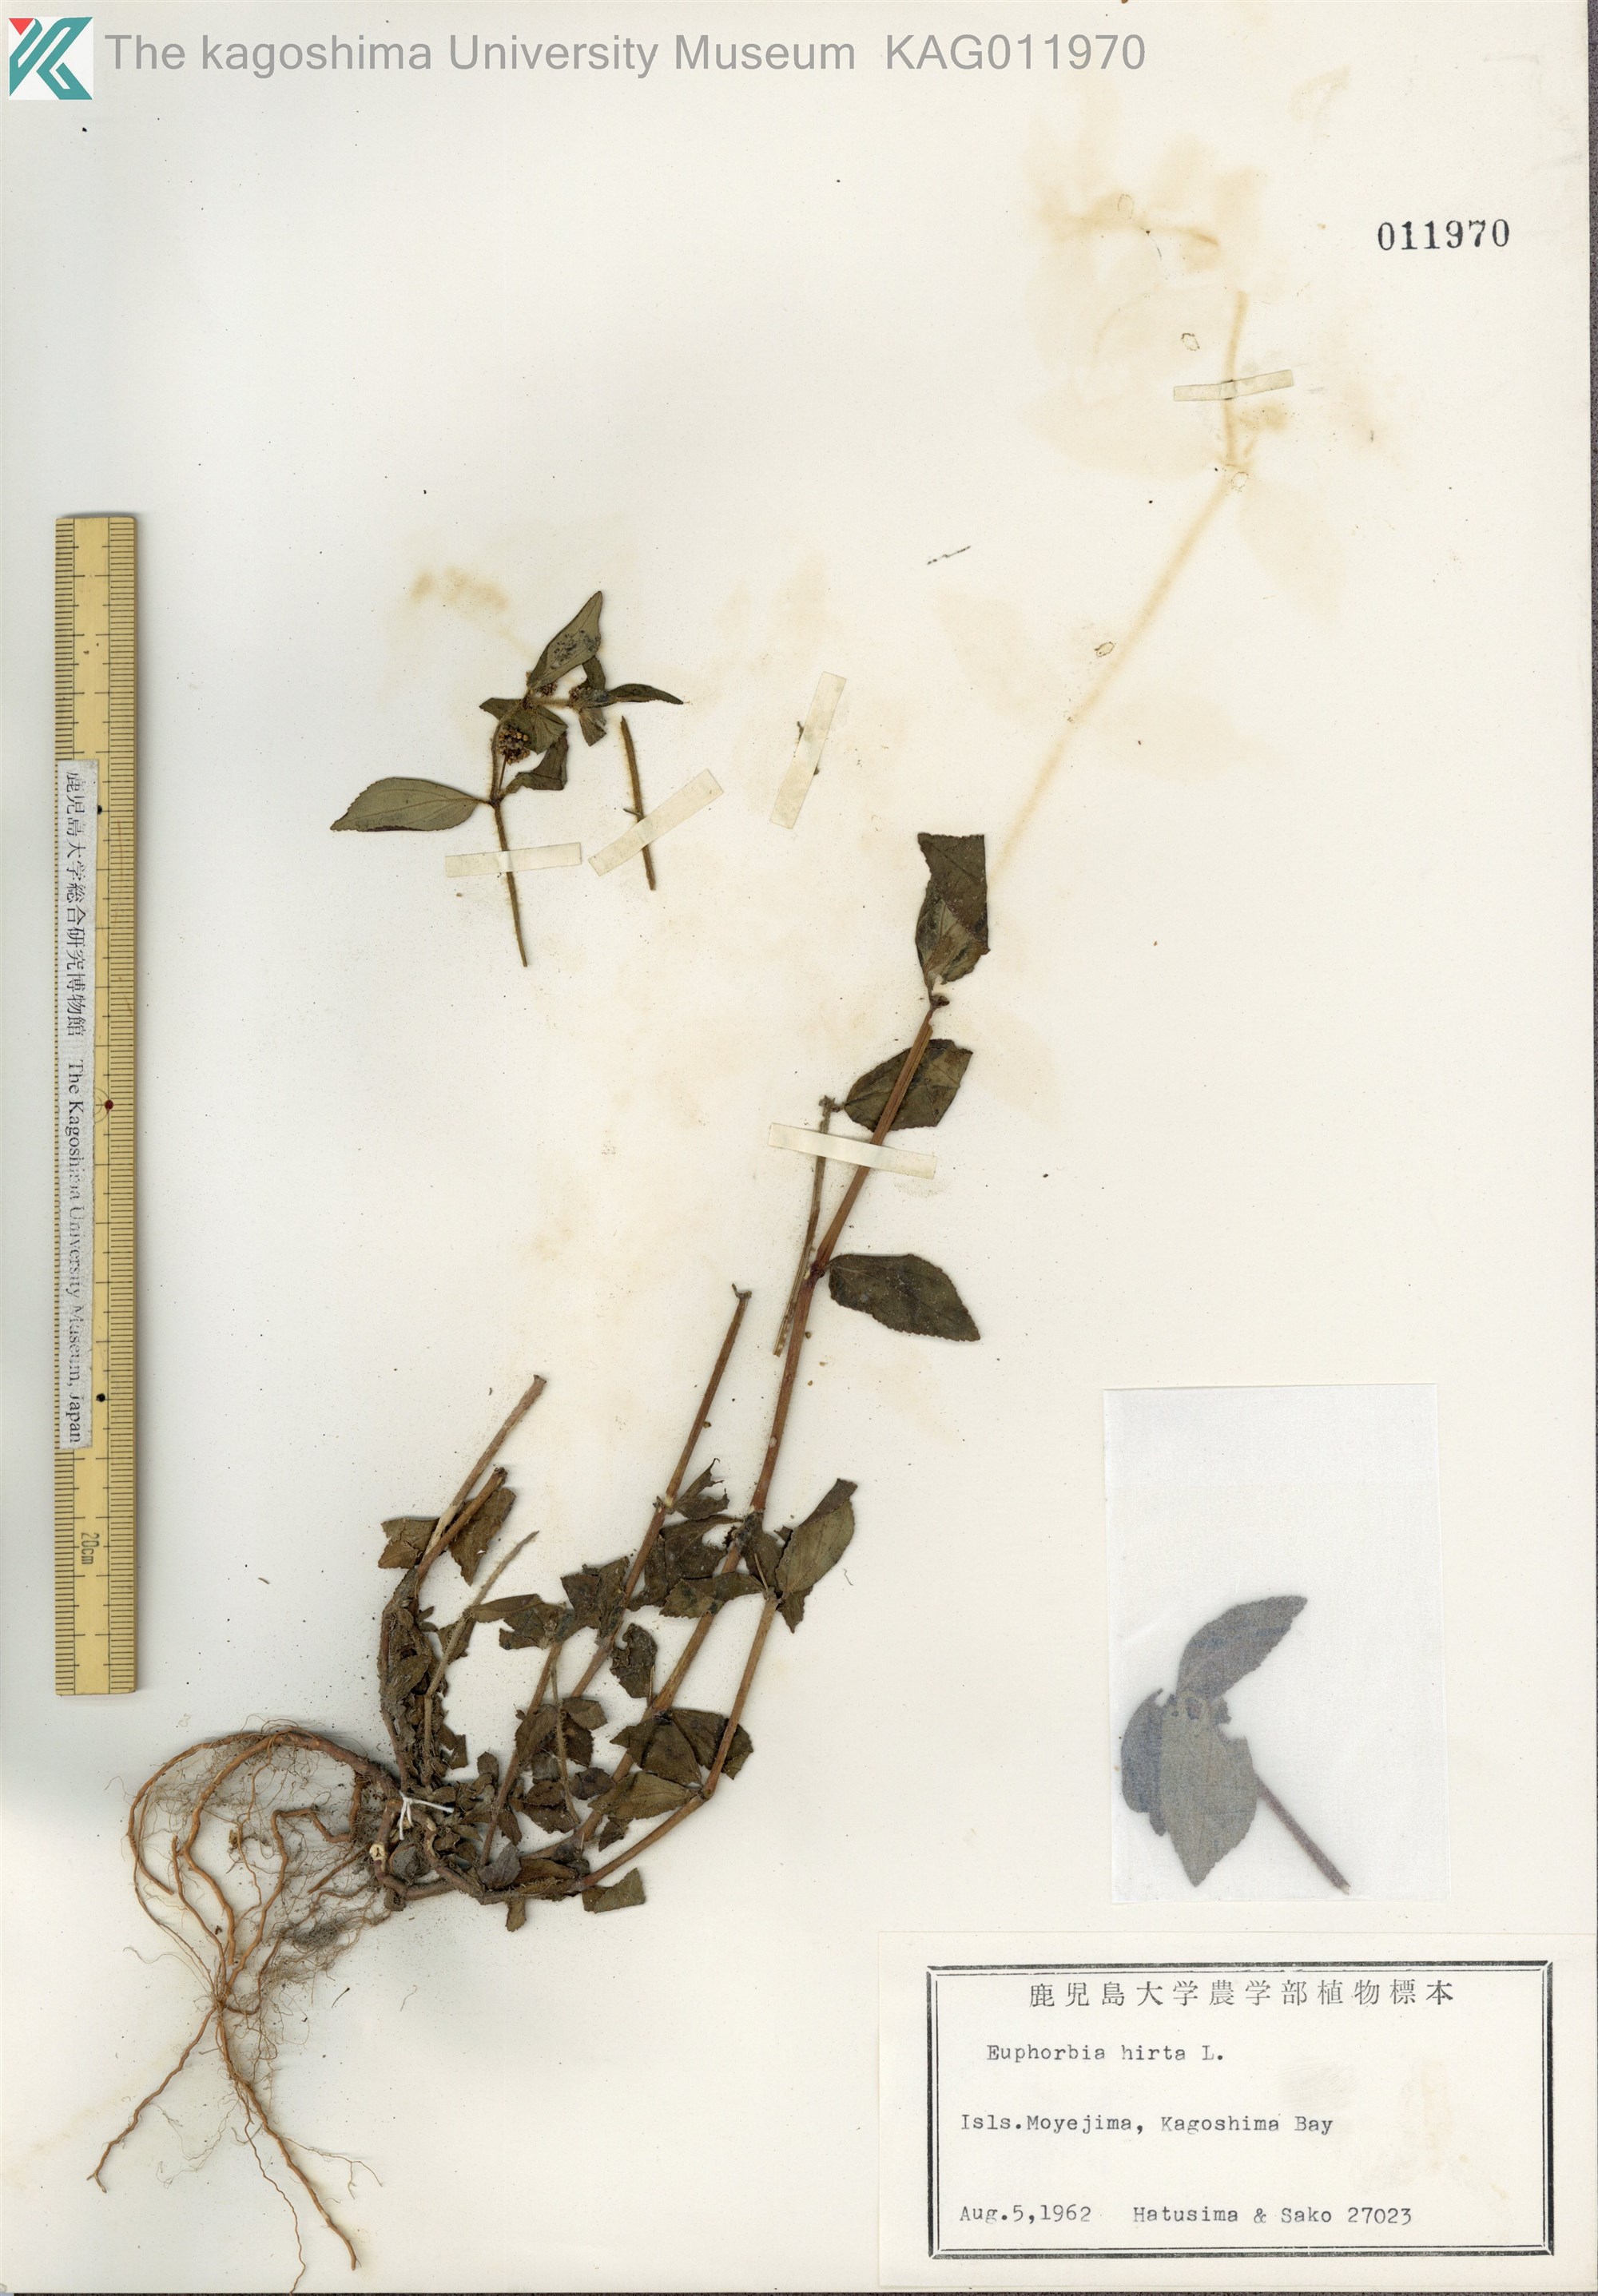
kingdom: Plantae
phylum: Tracheophyta
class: Magnoliopsida
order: Malpighiales
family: Euphorbiaceae
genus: Euphorbia
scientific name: Euphorbia hirta
